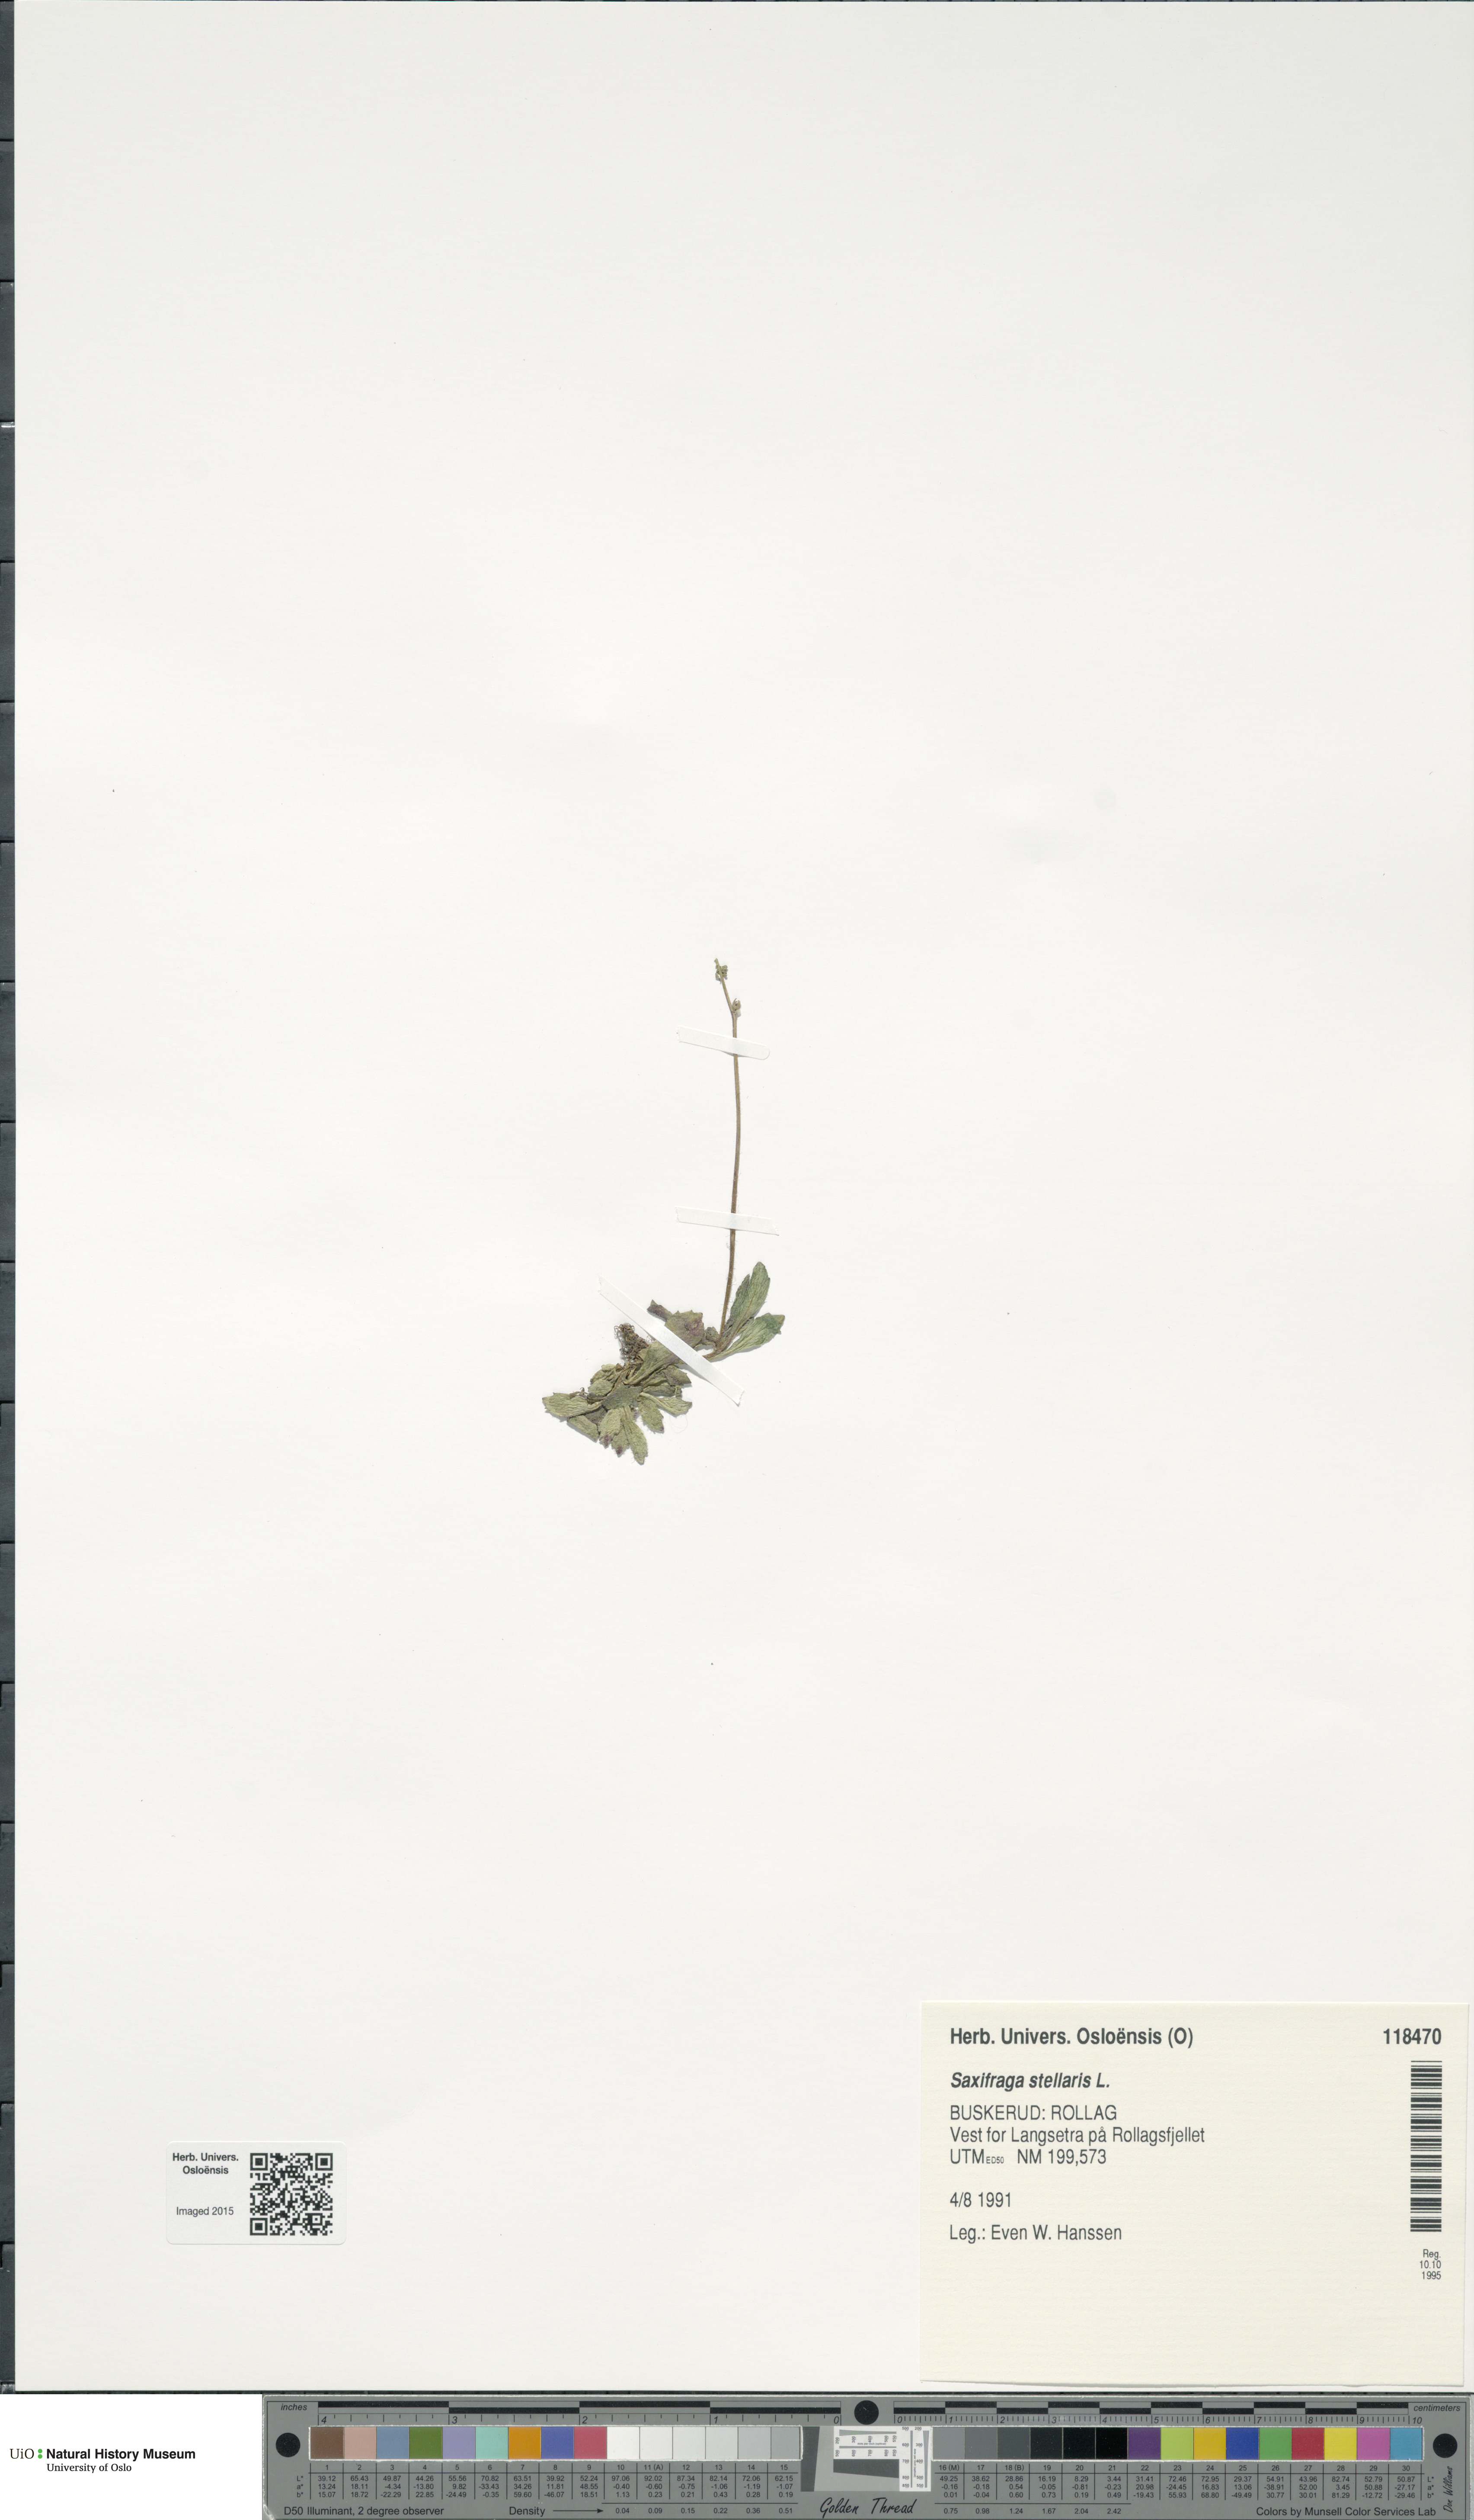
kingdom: Plantae
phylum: Tracheophyta
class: Magnoliopsida
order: Saxifragales
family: Saxifragaceae
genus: Micranthes
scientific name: Micranthes stellaris
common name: Starry saxifrage
